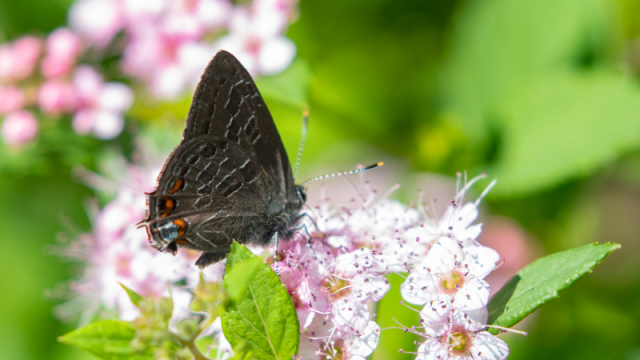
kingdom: Animalia
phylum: Arthropoda
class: Insecta
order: Lepidoptera
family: Lycaenidae
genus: Satyrium
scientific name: Satyrium liparops
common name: Striped Hairstreak
